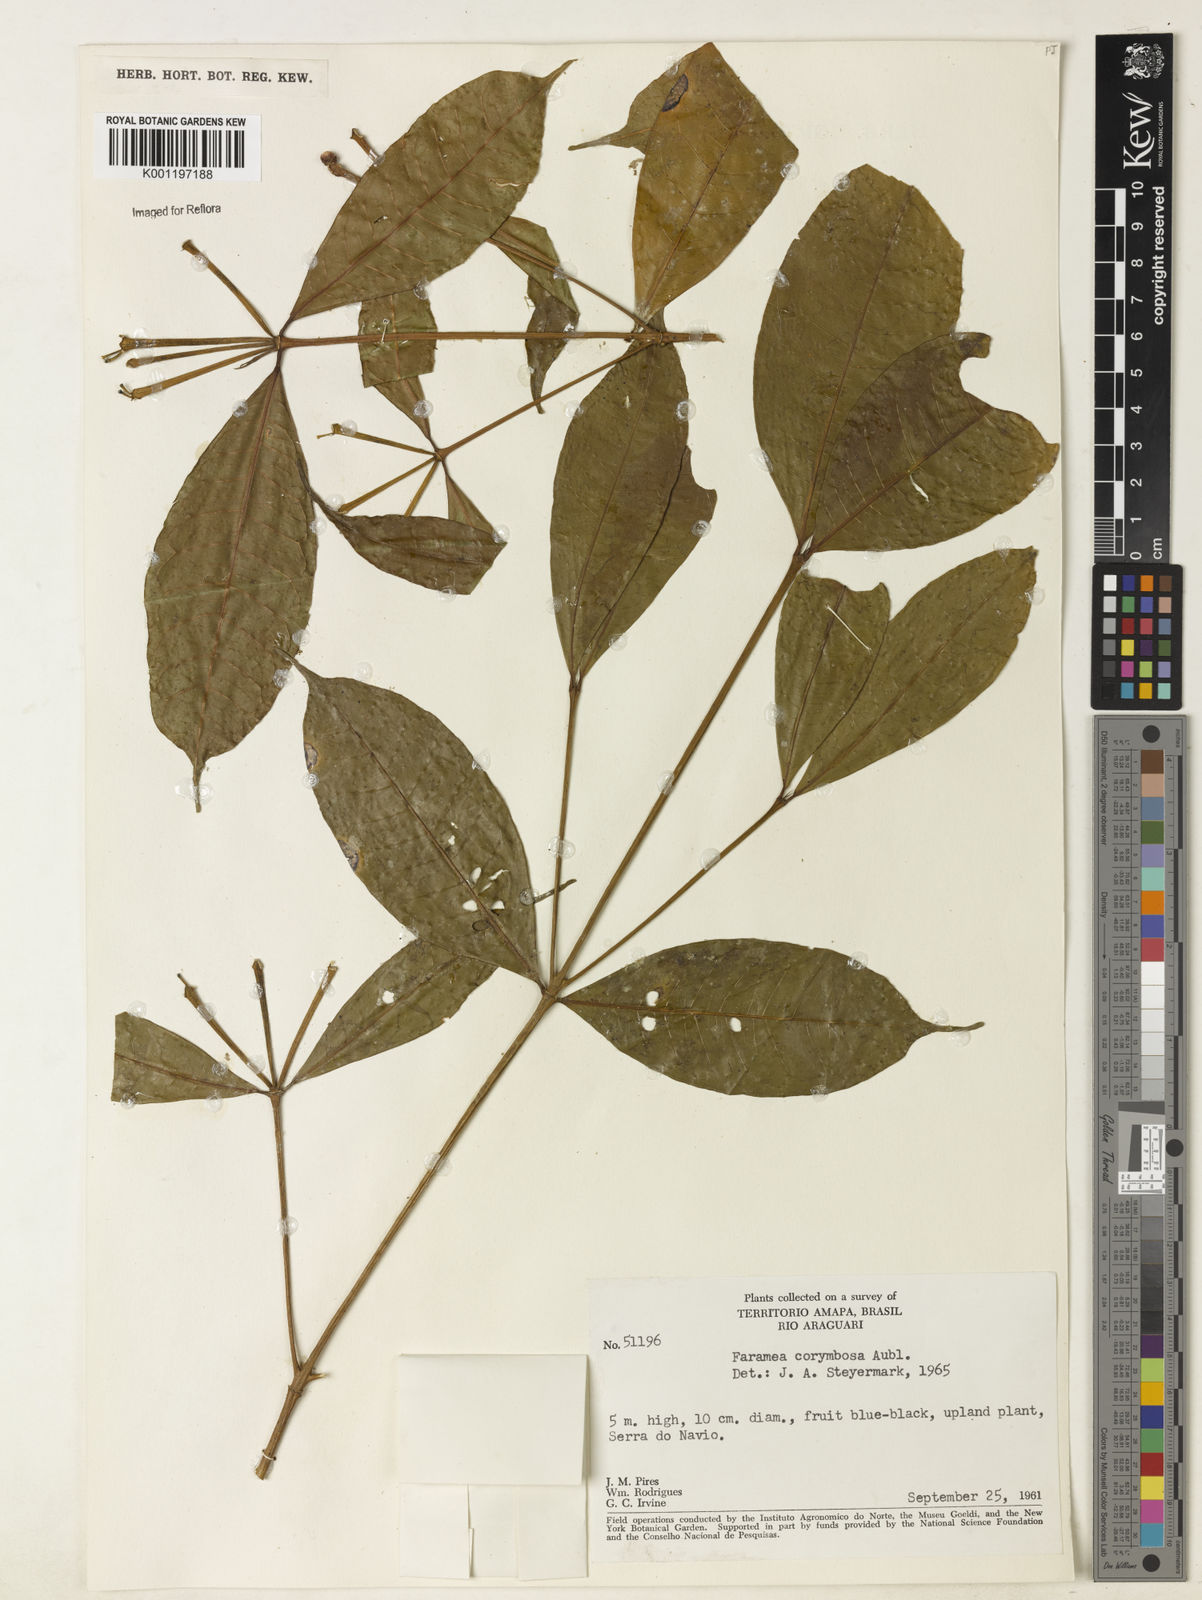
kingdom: Plantae
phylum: Tracheophyta
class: Magnoliopsida
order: Gentianales
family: Rubiaceae
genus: Faramea
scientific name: Faramea corymbosa
